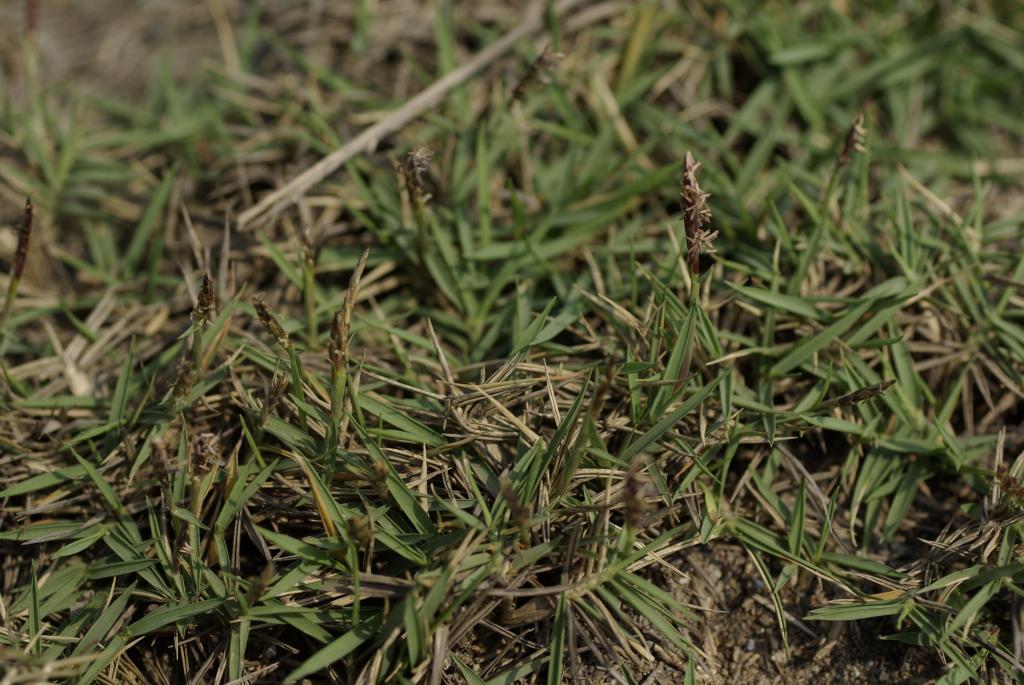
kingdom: Plantae
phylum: Tracheophyta
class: Liliopsida
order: Poales
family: Poaceae
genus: Zoysia
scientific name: Zoysia sinica
